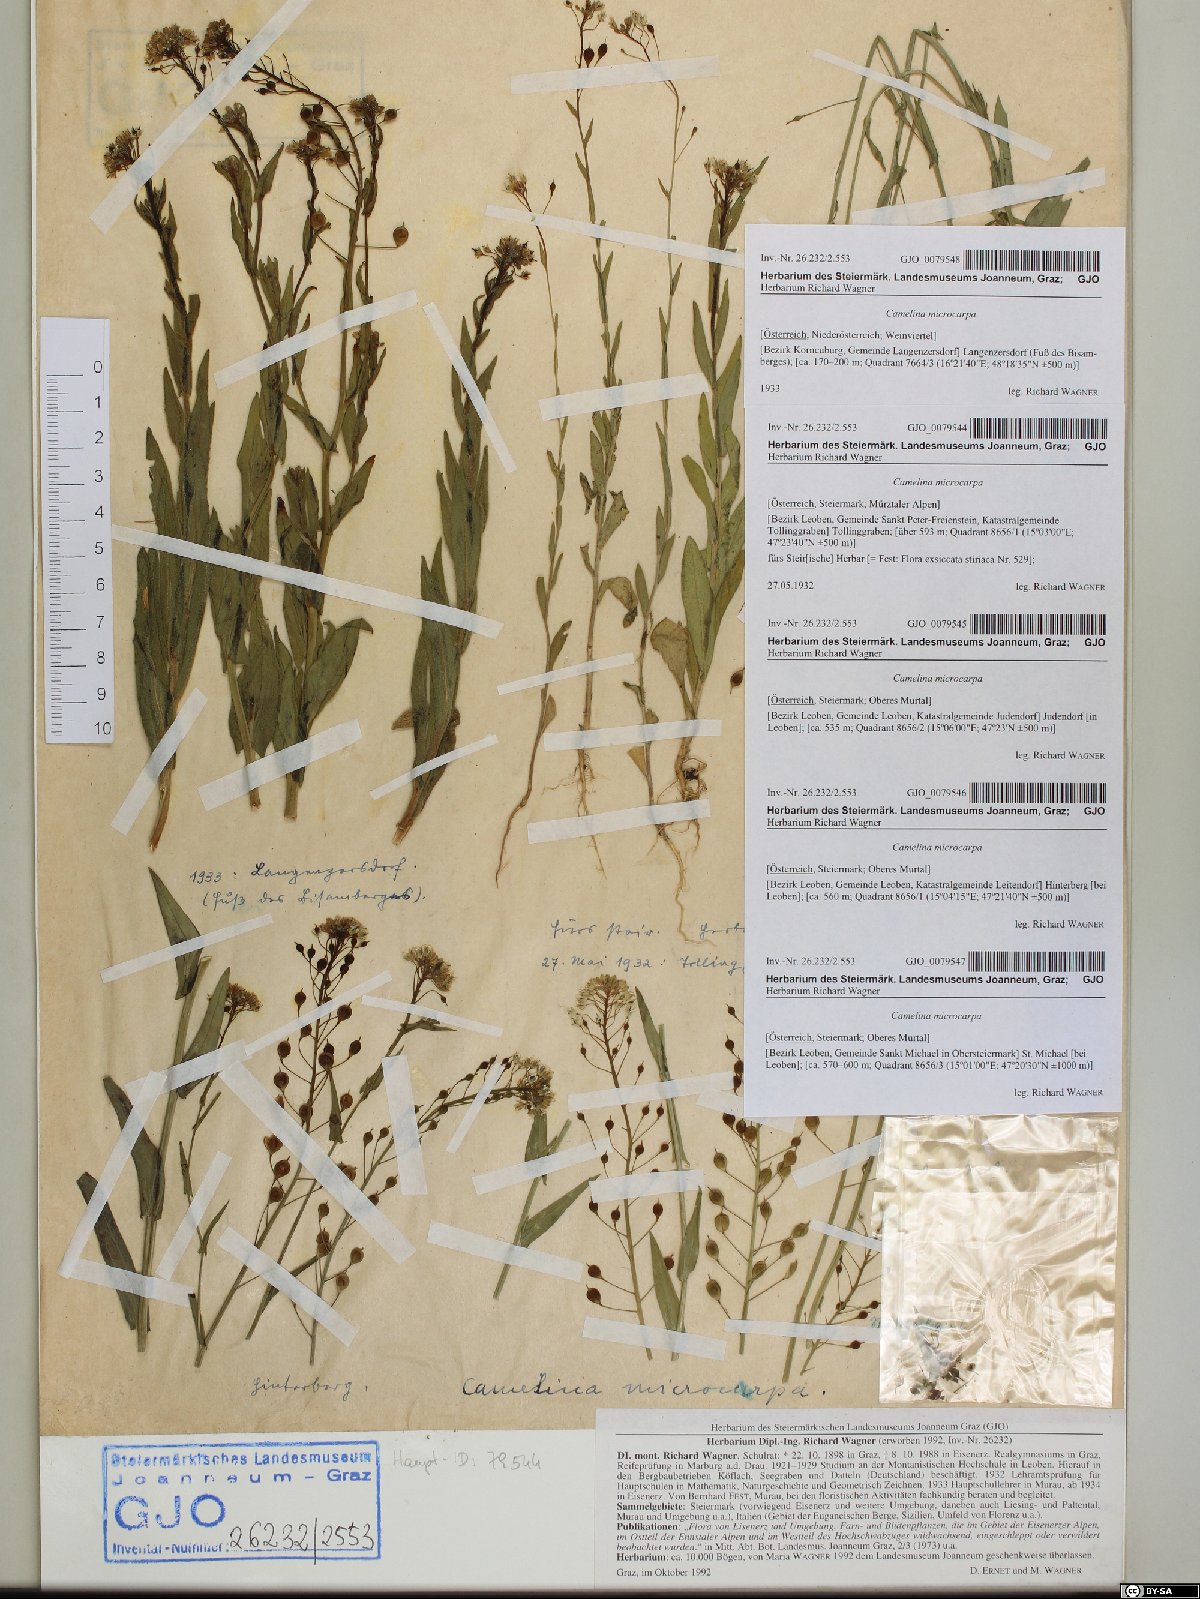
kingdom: Plantae
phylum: Tracheophyta
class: Magnoliopsida
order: Brassicales
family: Brassicaceae
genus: Camelina
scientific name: Camelina microcarpa
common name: Lesser gold-of-pleasure
